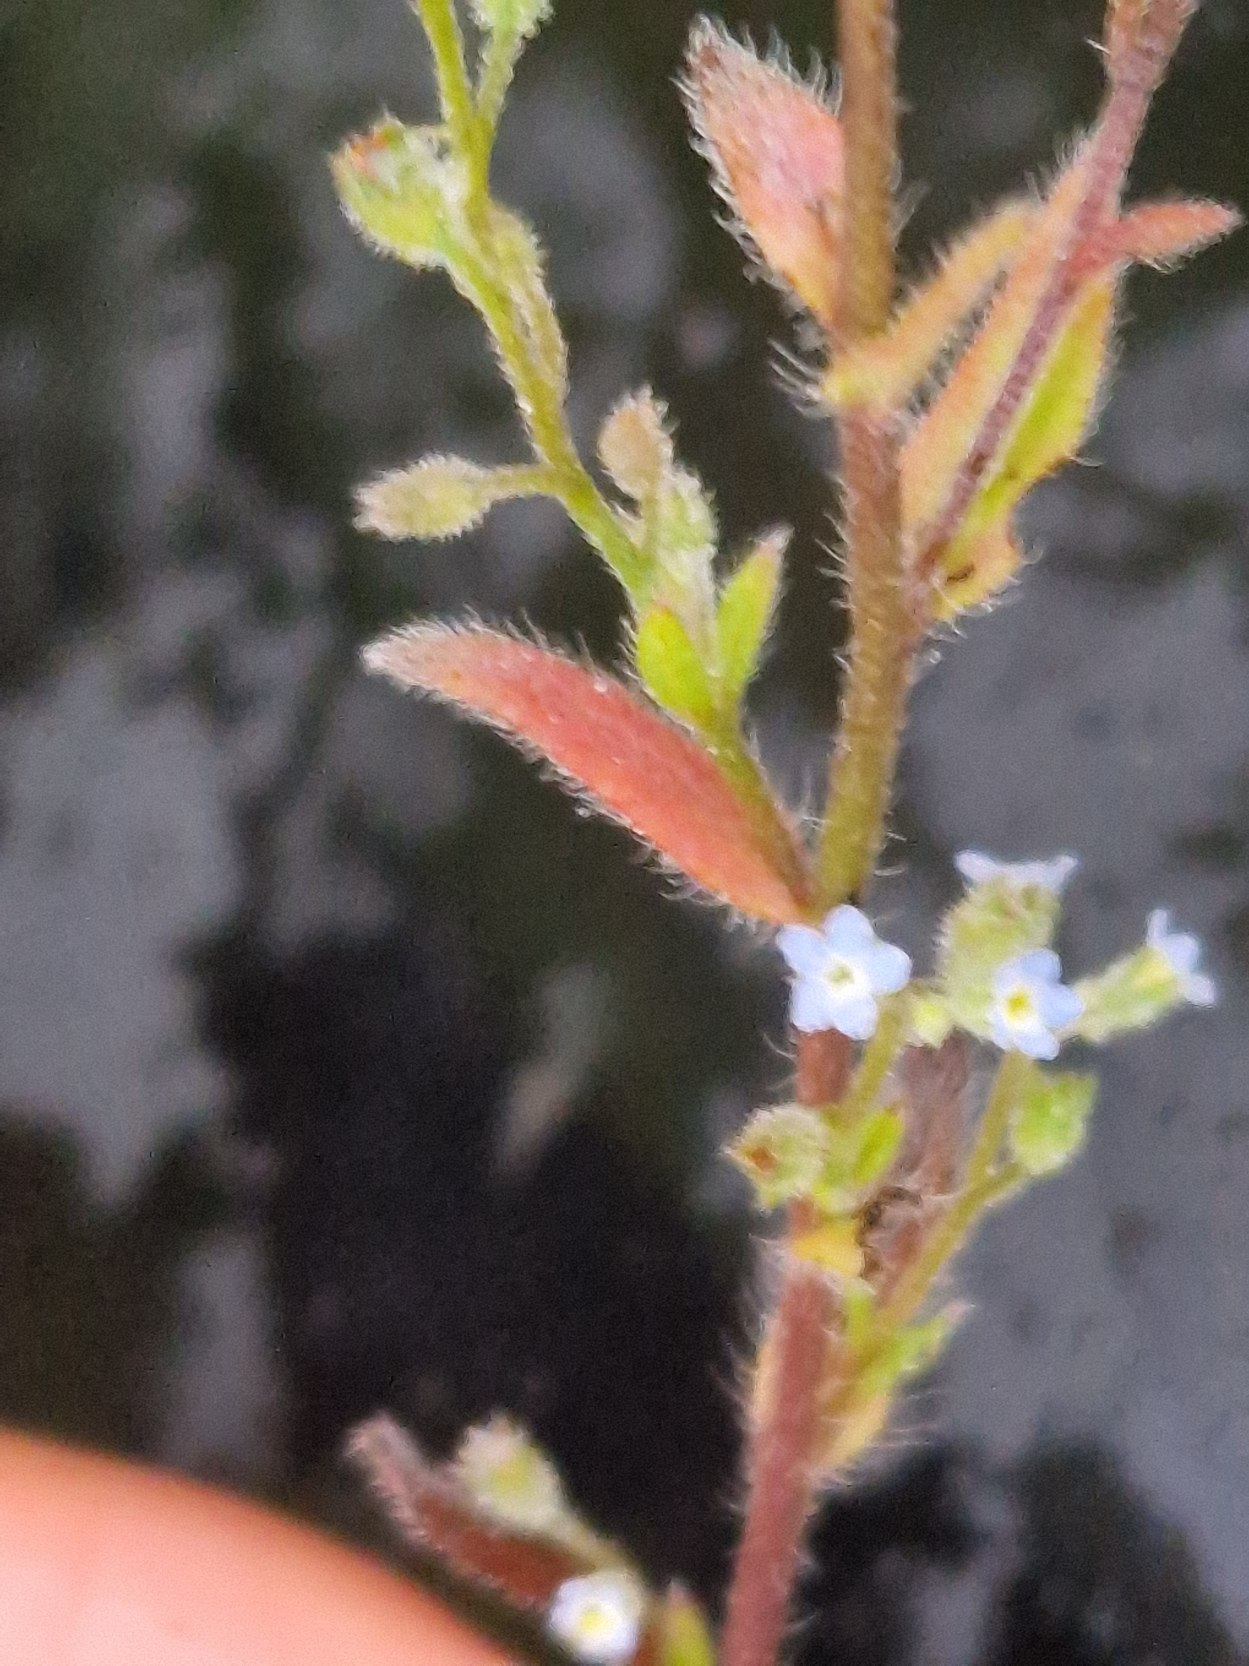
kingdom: Plantae
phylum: Tracheophyta
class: Magnoliopsida
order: Boraginales
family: Boraginaceae
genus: Myosotis
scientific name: Myosotis
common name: Forglemmigejslægten
